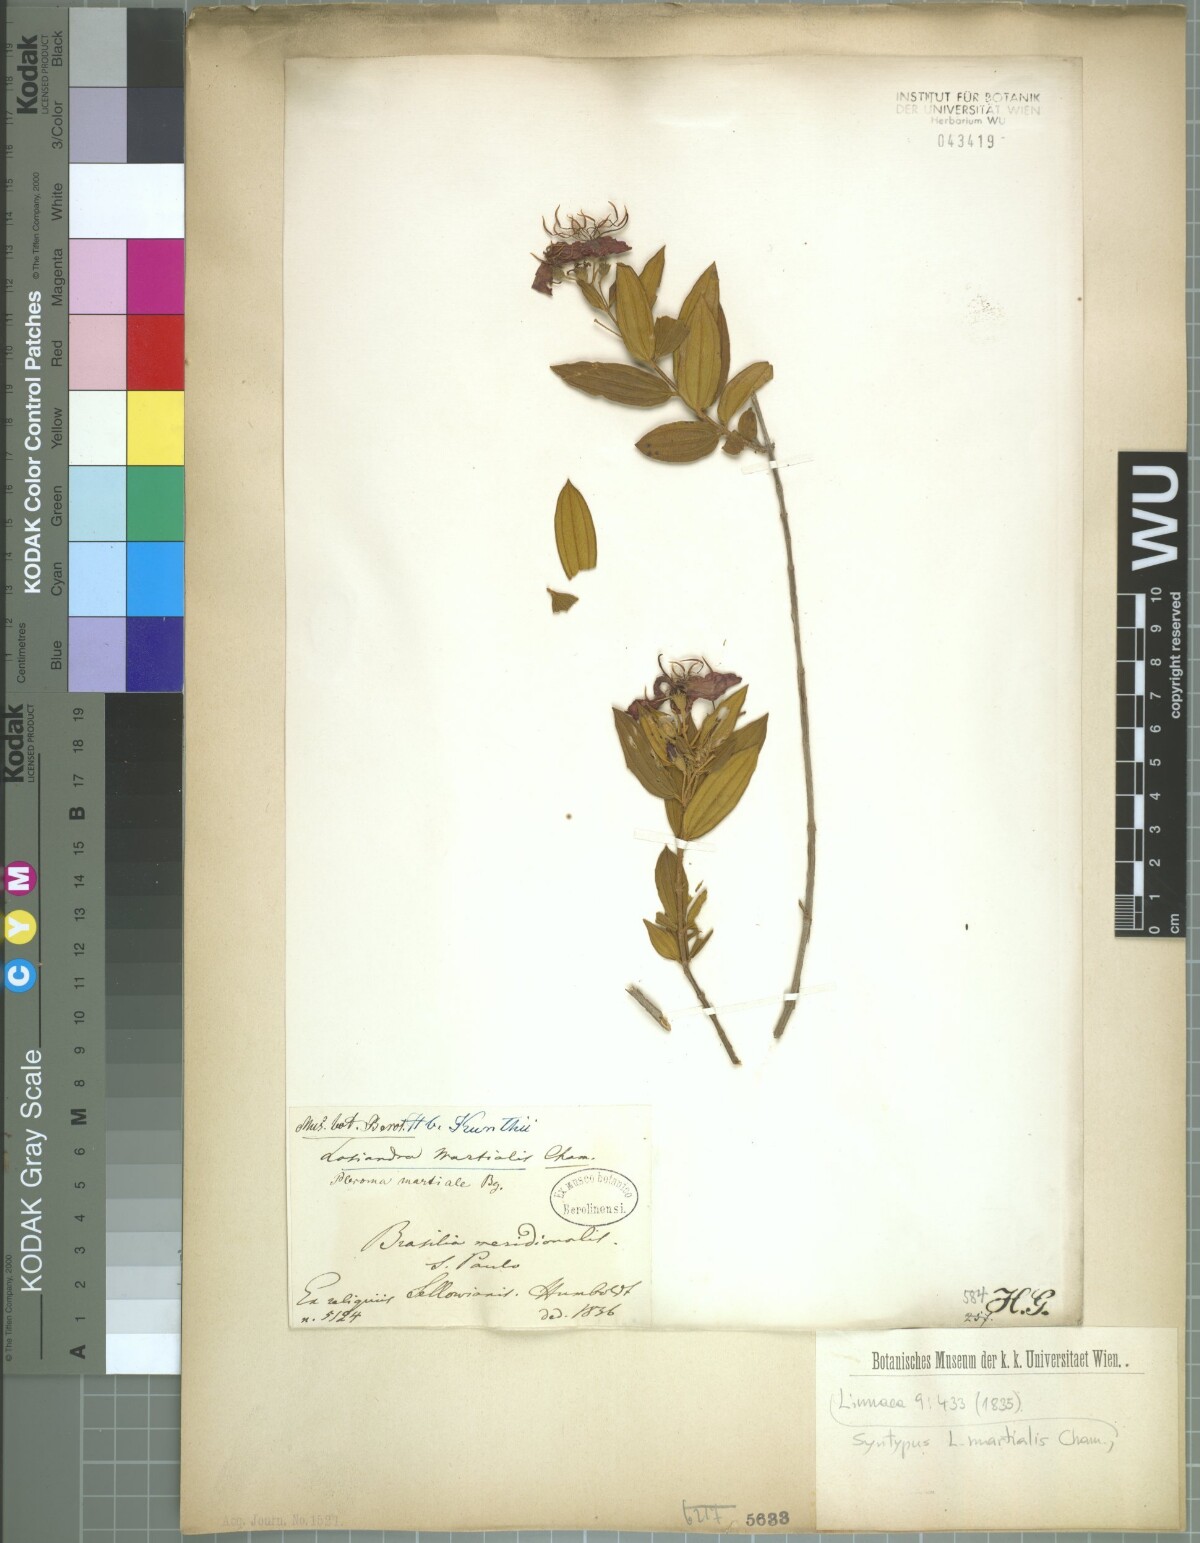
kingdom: Plantae
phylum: Tracheophyta
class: Magnoliopsida
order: Myrtales
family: Melastomataceae
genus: Pleroma
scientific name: Pleroma martiale
